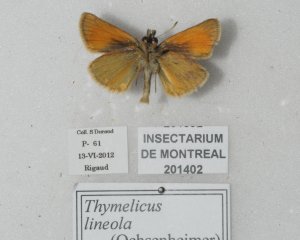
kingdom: Animalia
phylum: Arthropoda
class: Insecta
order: Lepidoptera
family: Hesperiidae
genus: Thymelicus
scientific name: Thymelicus lineola
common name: European Skipper
